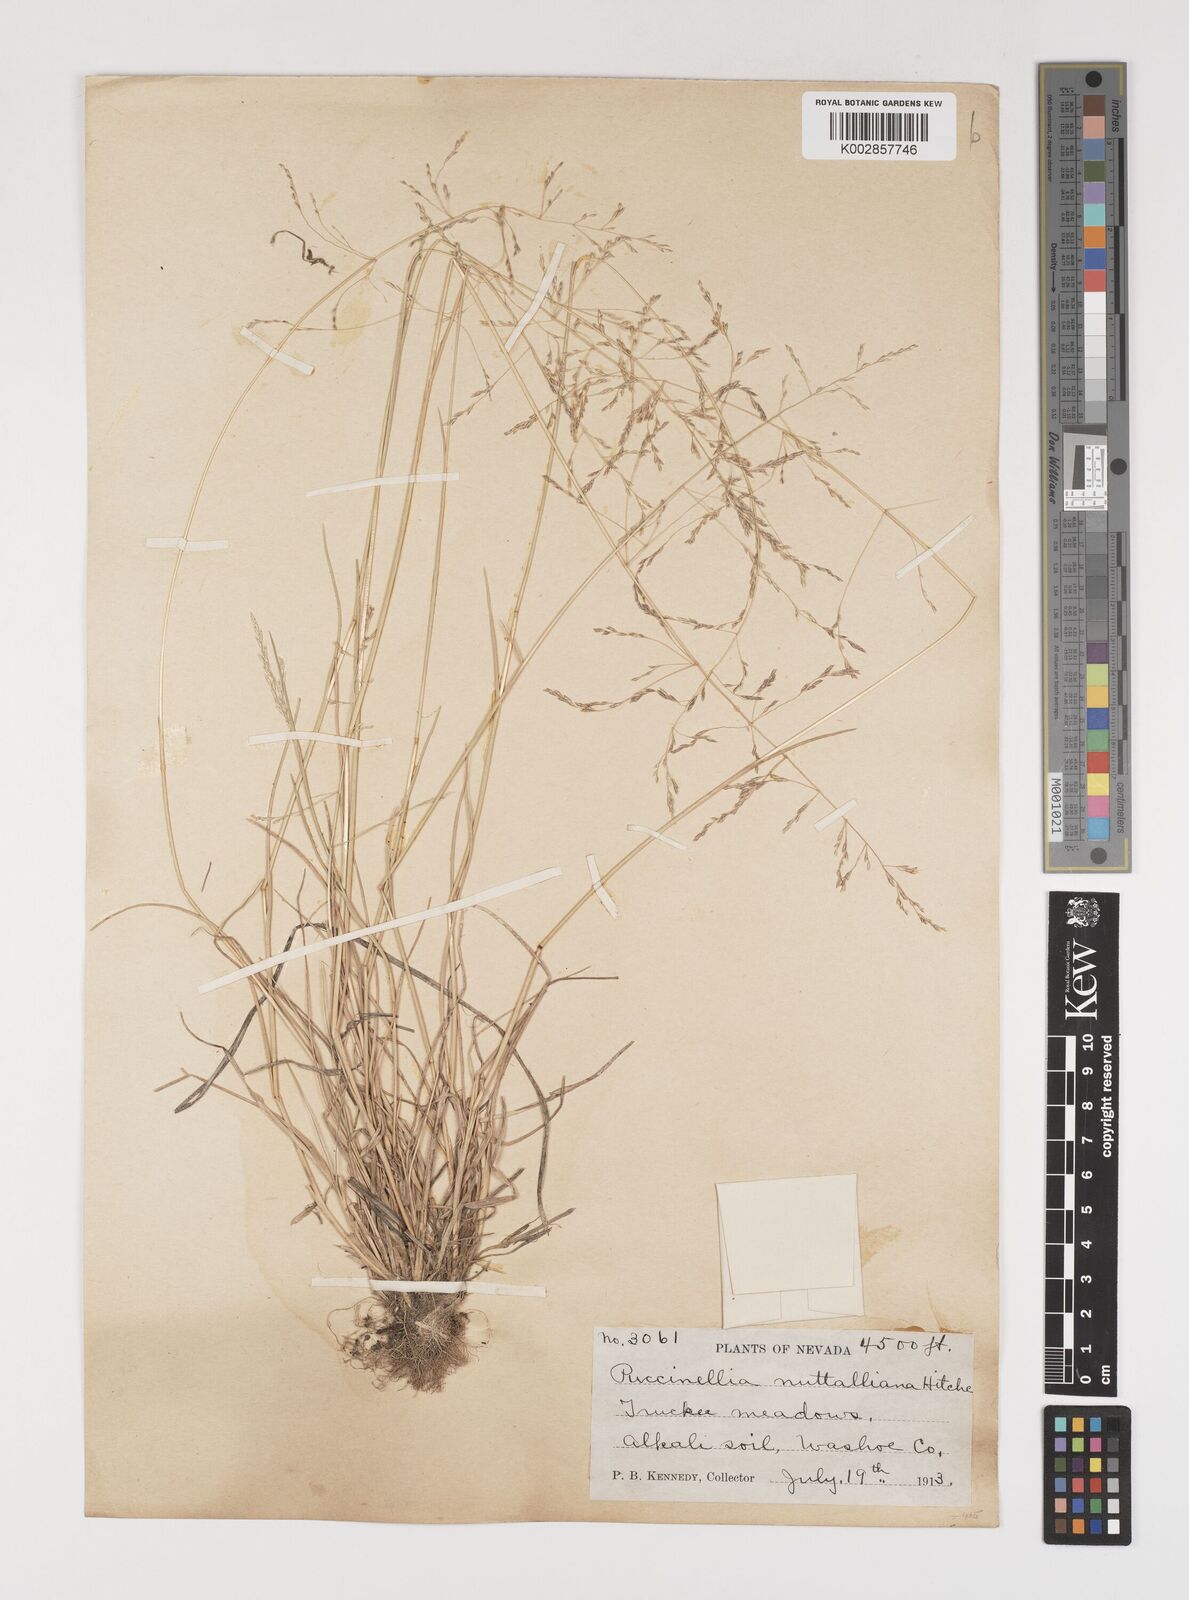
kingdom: Plantae
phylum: Tracheophyta
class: Liliopsida
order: Poales
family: Poaceae
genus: Puccinellia
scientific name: Puccinellia nuttalliana
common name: Nuttall's alkali grass
